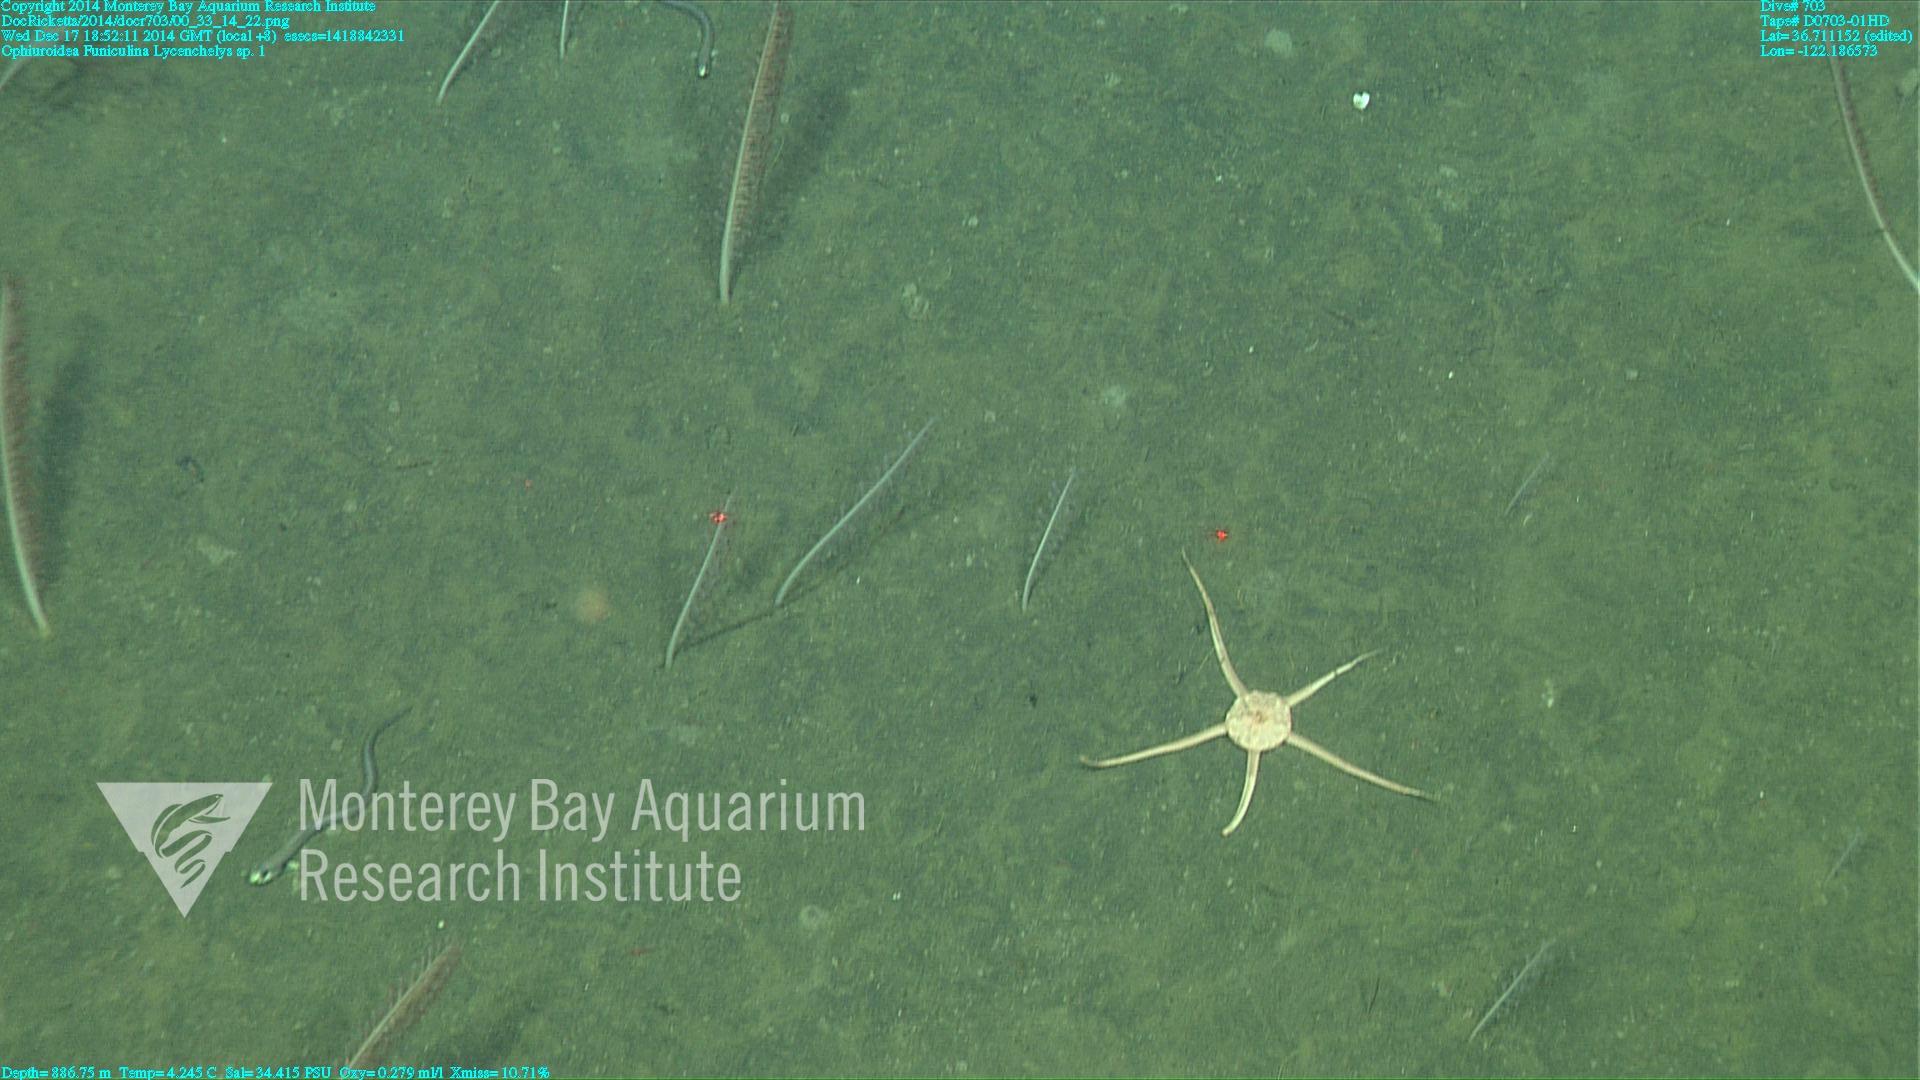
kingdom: Animalia
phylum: Cnidaria
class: Anthozoa
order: Scleralcyonacea
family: Funiculinidae
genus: Funiculina
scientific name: Funiculina
